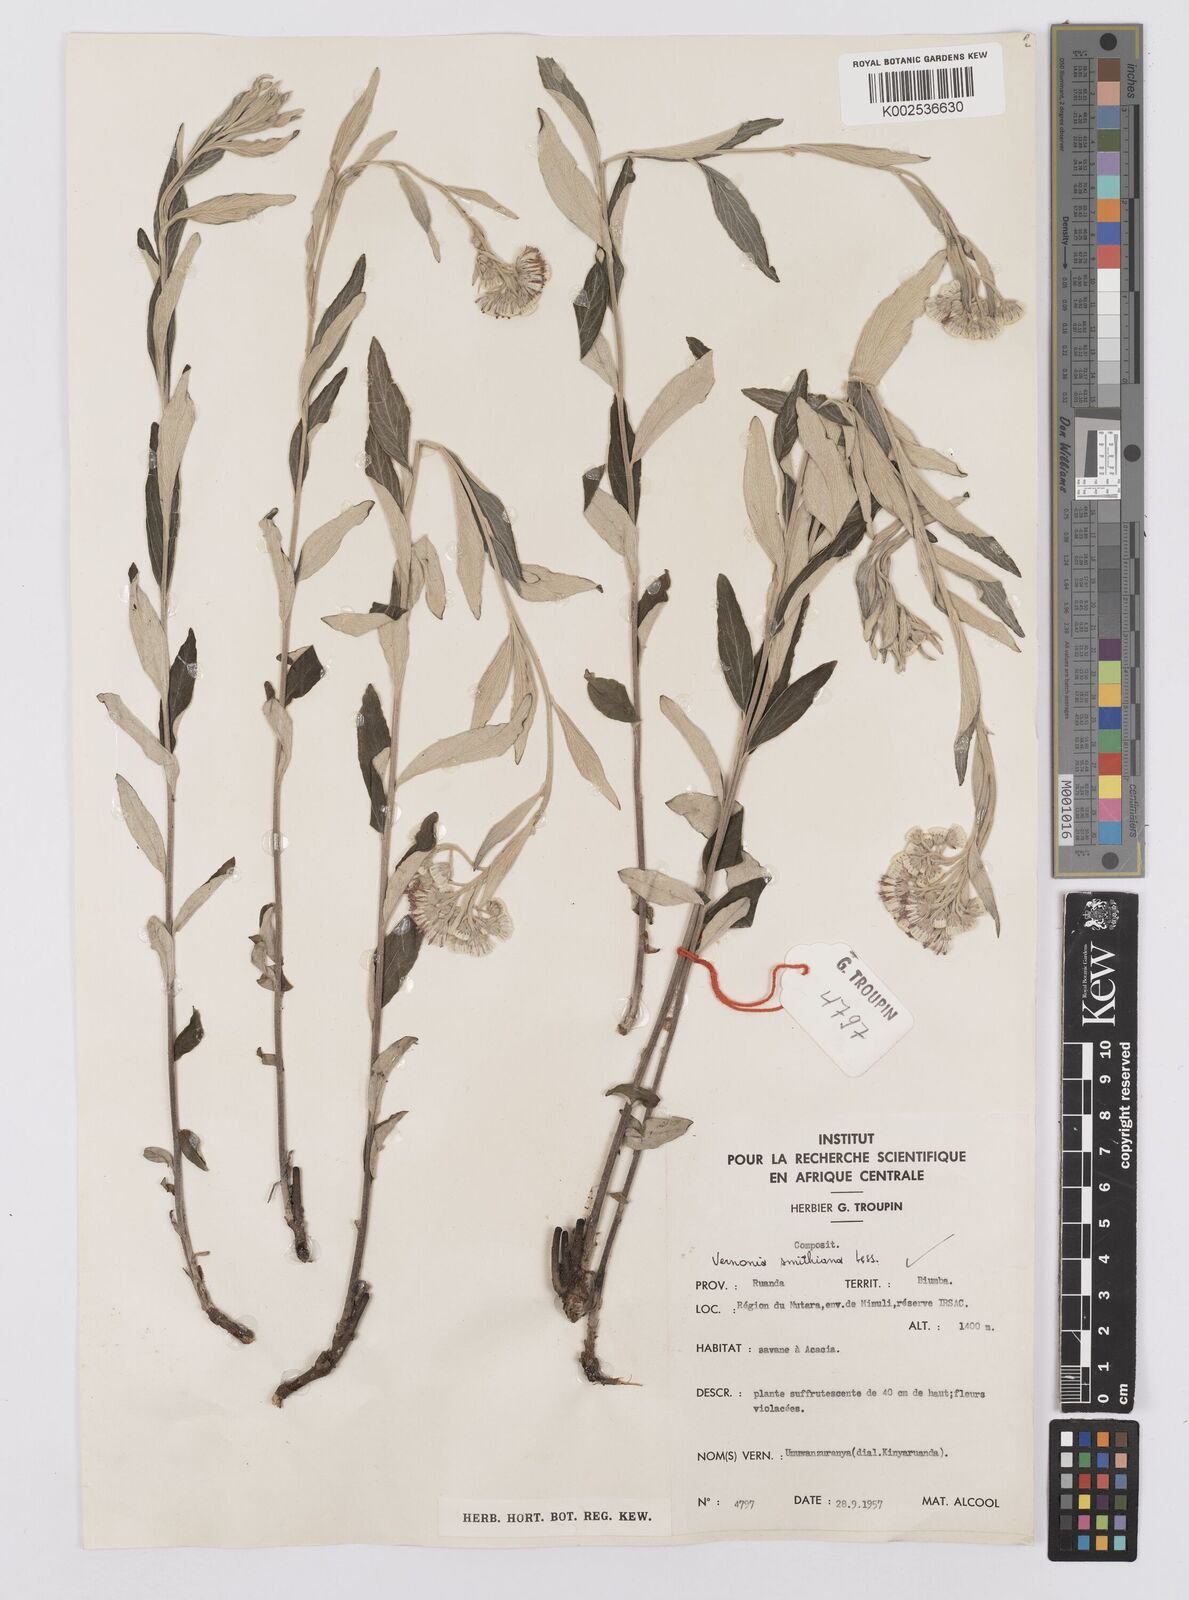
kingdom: Plantae
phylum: Tracheophyta
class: Magnoliopsida
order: Asterales
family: Asteraceae
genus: Hilliardiella
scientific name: Hilliardiella smithiana
